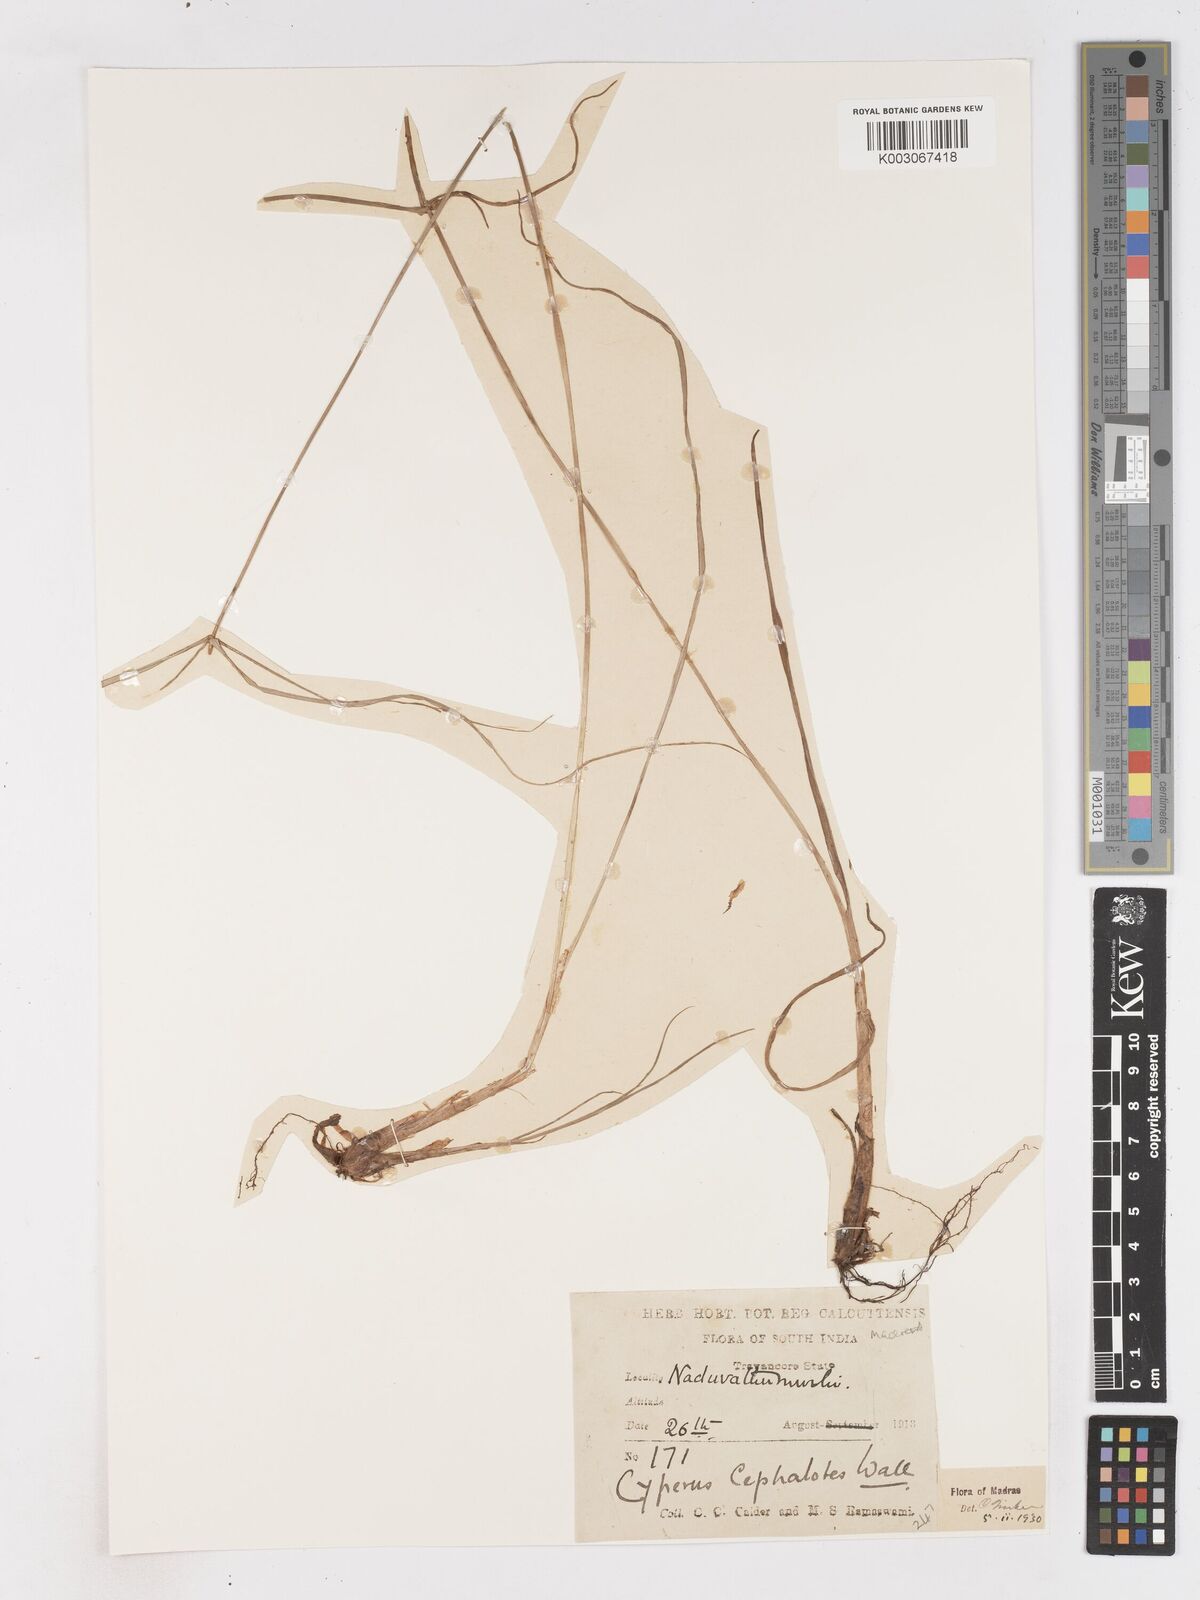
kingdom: Plantae
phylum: Tracheophyta
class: Liliopsida
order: Poales
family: Cyperaceae
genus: Cyperus
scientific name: Cyperus cephalotes
